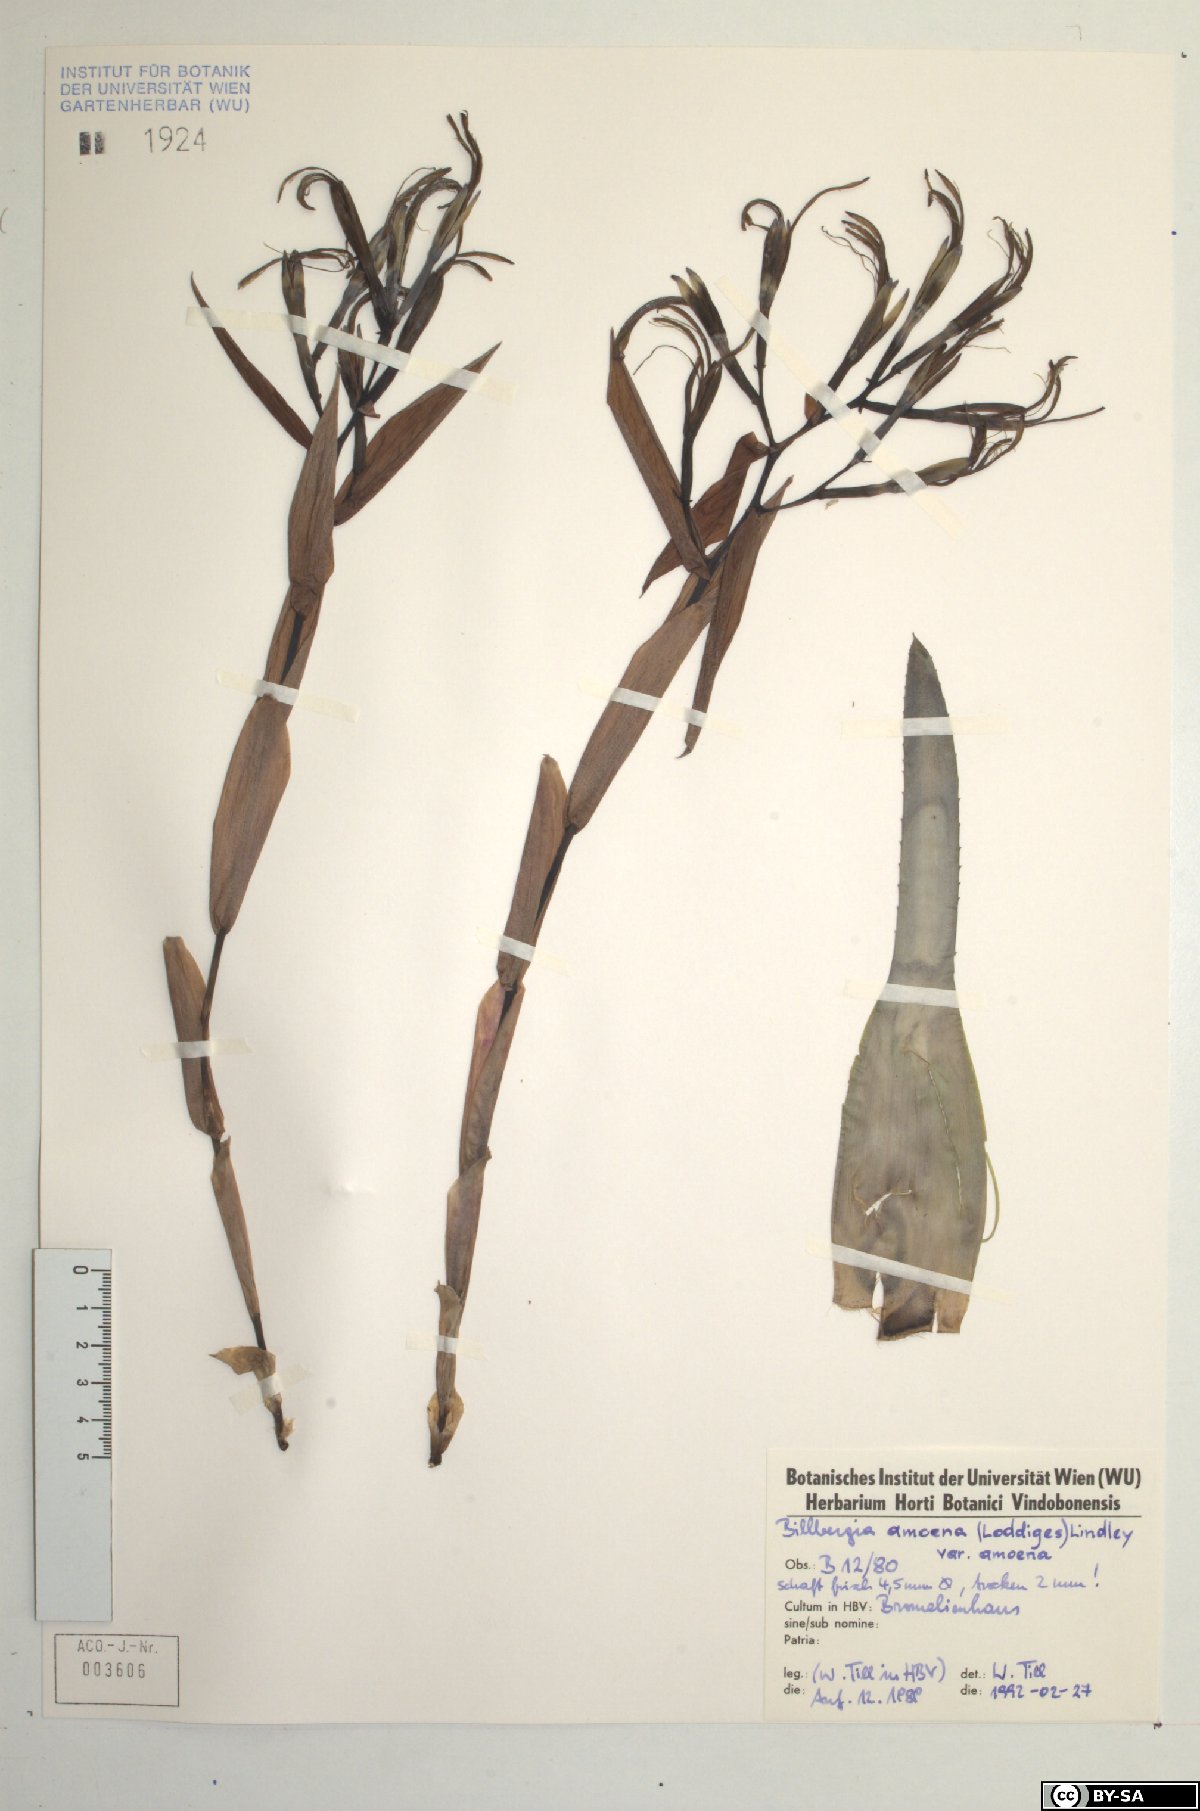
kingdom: Plantae
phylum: Tracheophyta
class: Liliopsida
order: Poales
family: Bromeliaceae
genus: Tillandsia
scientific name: Tillandsia tenuifolia
